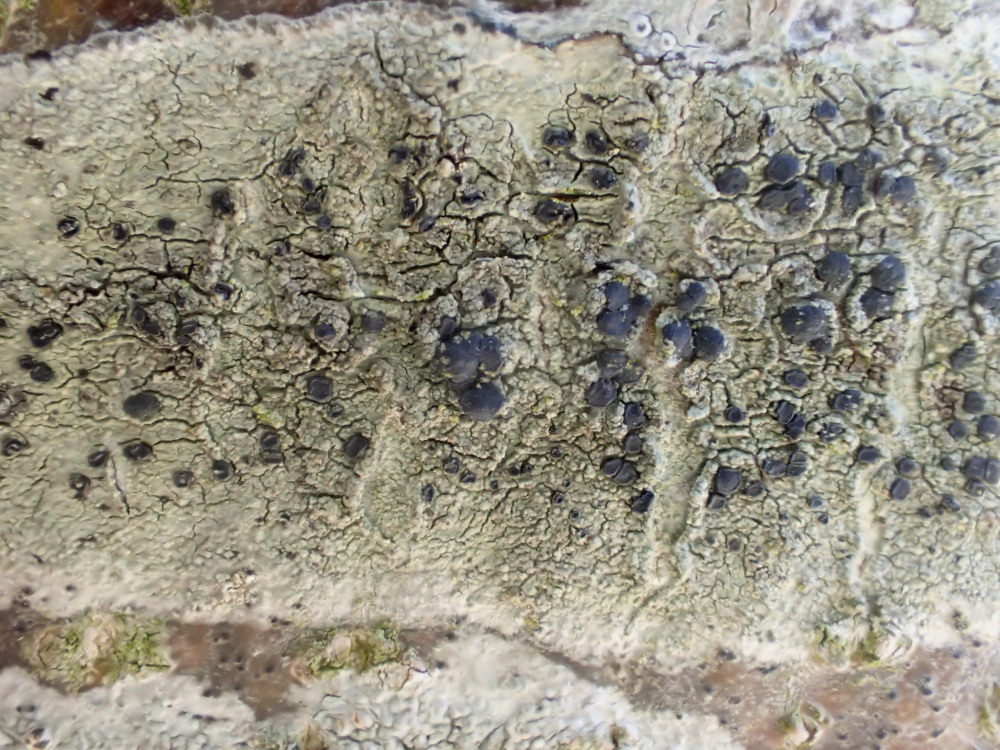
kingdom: Fungi
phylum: Ascomycota
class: Lecanoromycetes
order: Lecanorales
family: Lecanoraceae
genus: Lecidella
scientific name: Lecidella elaeochroma
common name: grågrøn skivelav
